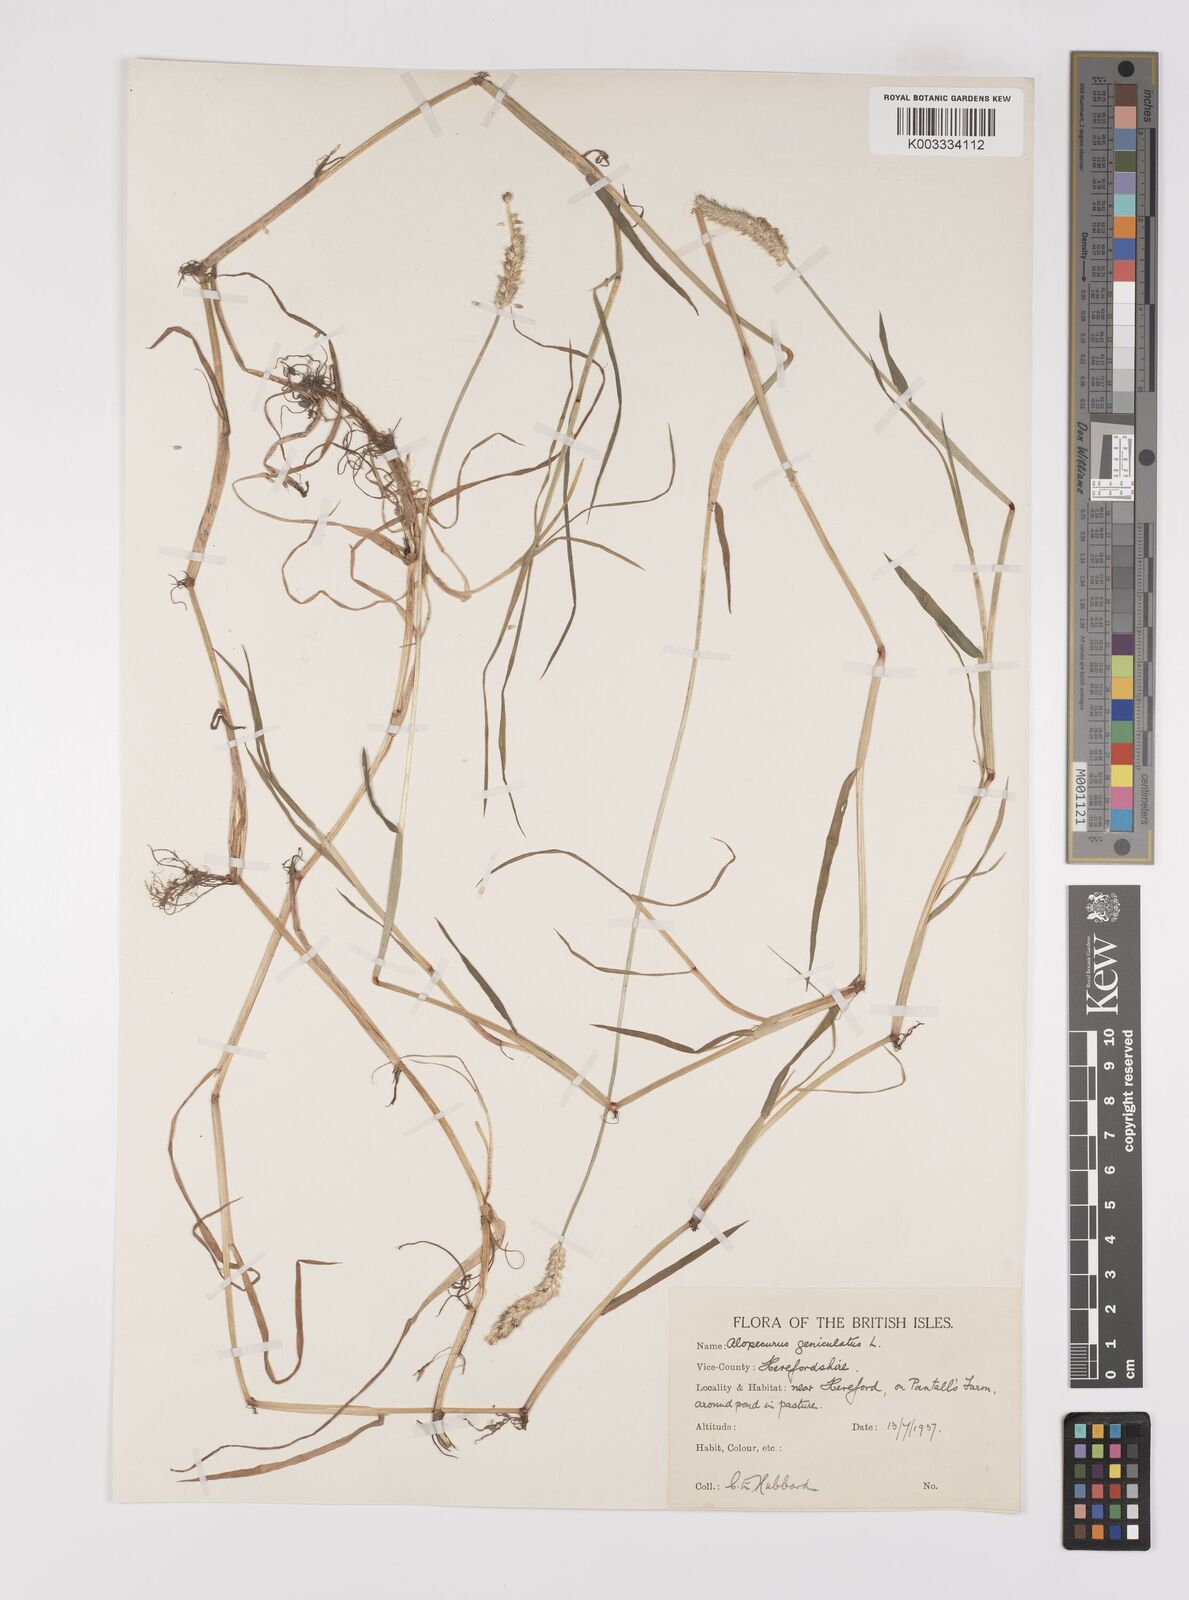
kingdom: Plantae
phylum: Tracheophyta
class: Liliopsida
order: Poales
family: Poaceae
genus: Alopecurus
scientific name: Alopecurus geniculatus
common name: Water foxtail
